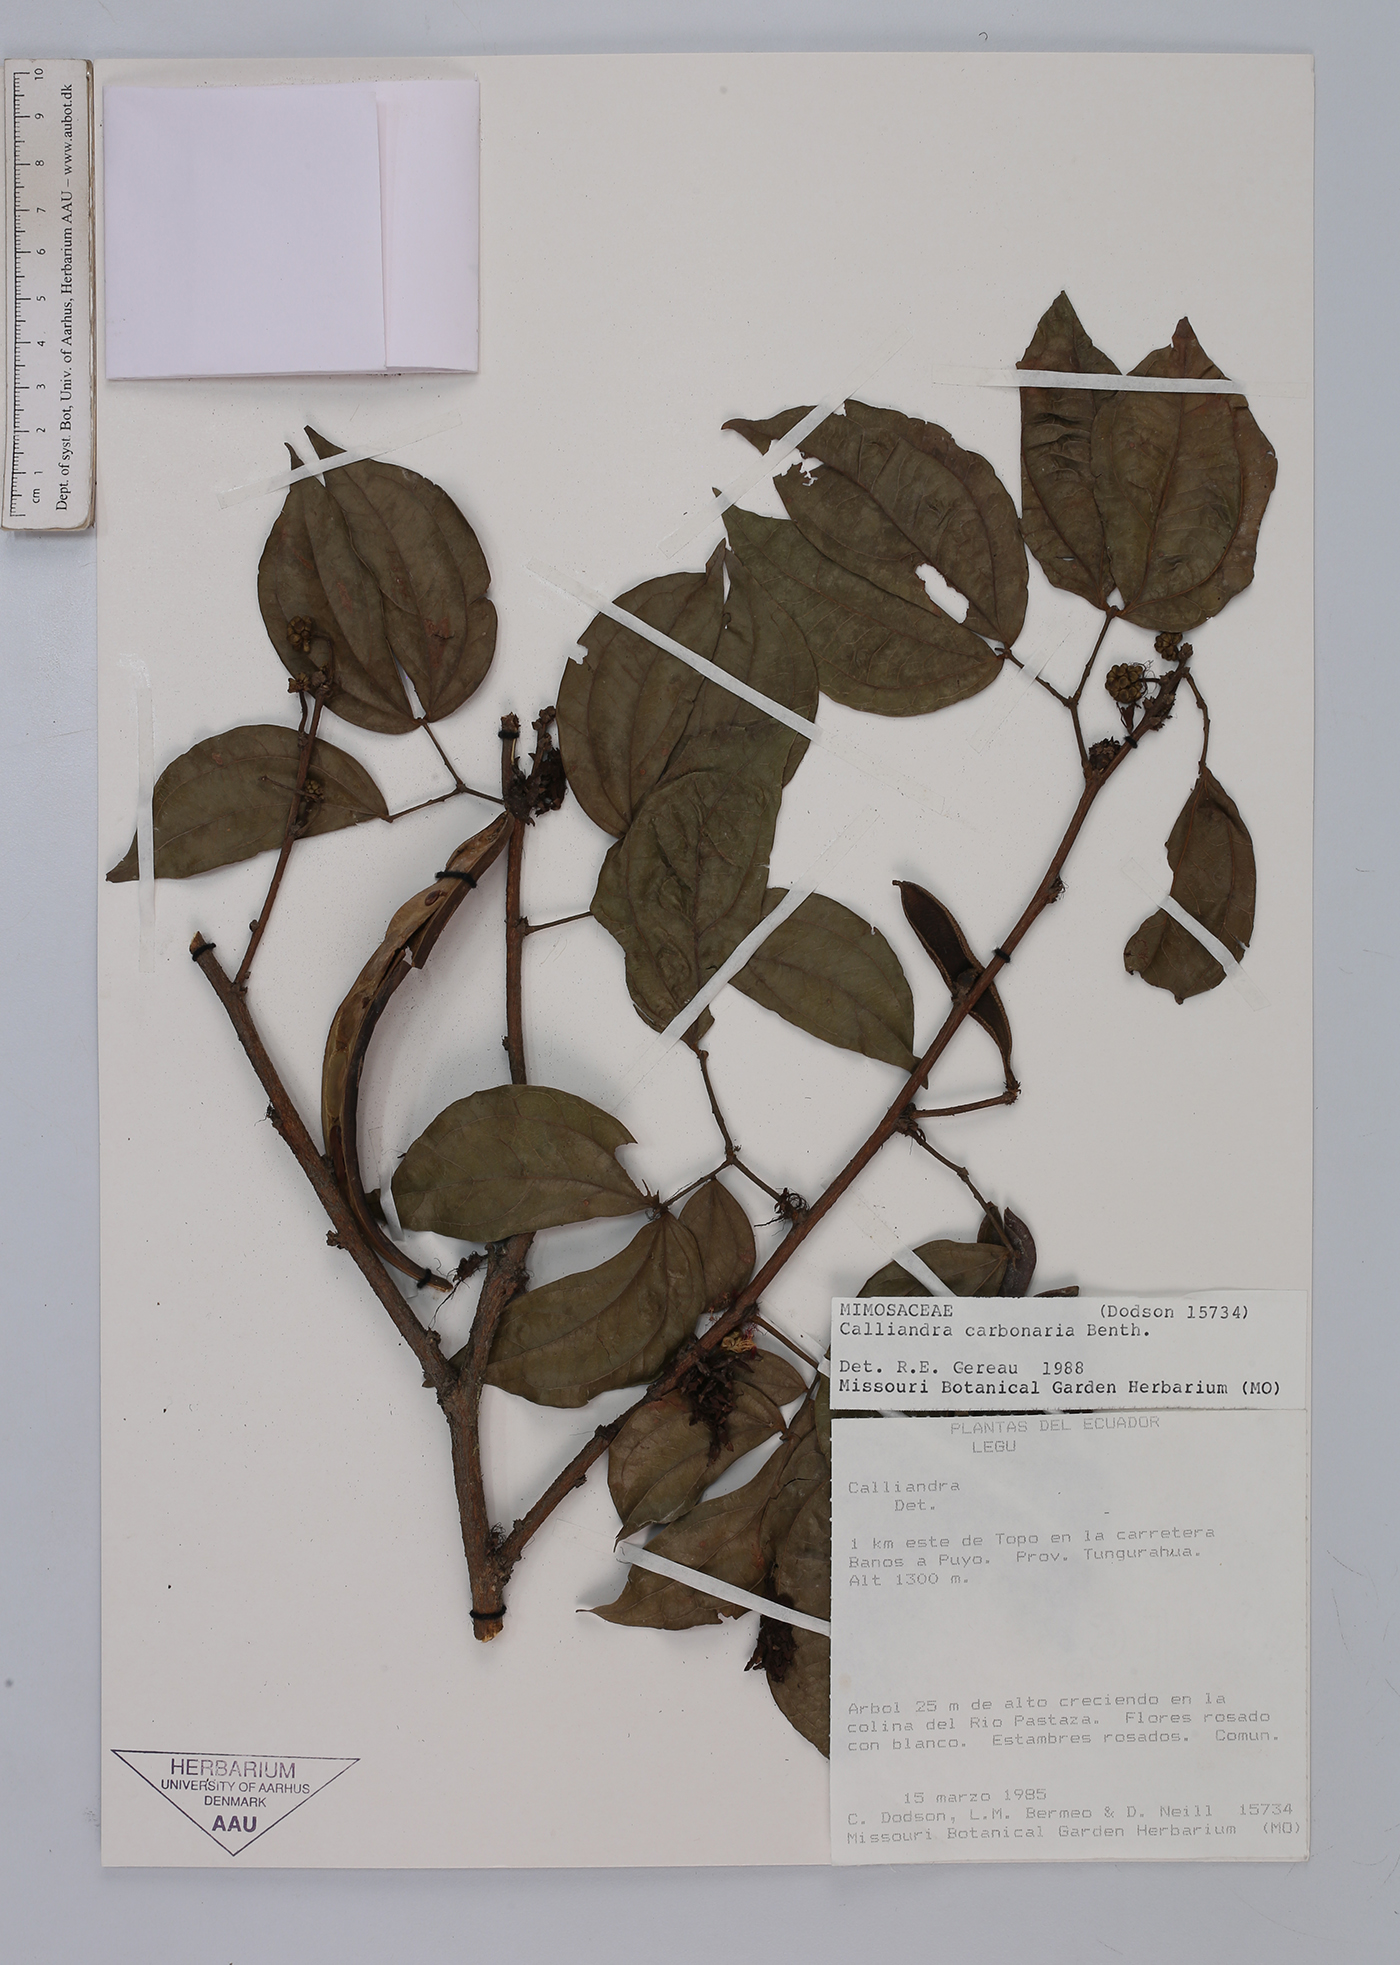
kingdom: Plantae
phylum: Tracheophyta
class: Magnoliopsida
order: Fabales
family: Fabaceae
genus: Calliandra
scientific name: Calliandra trinervia
